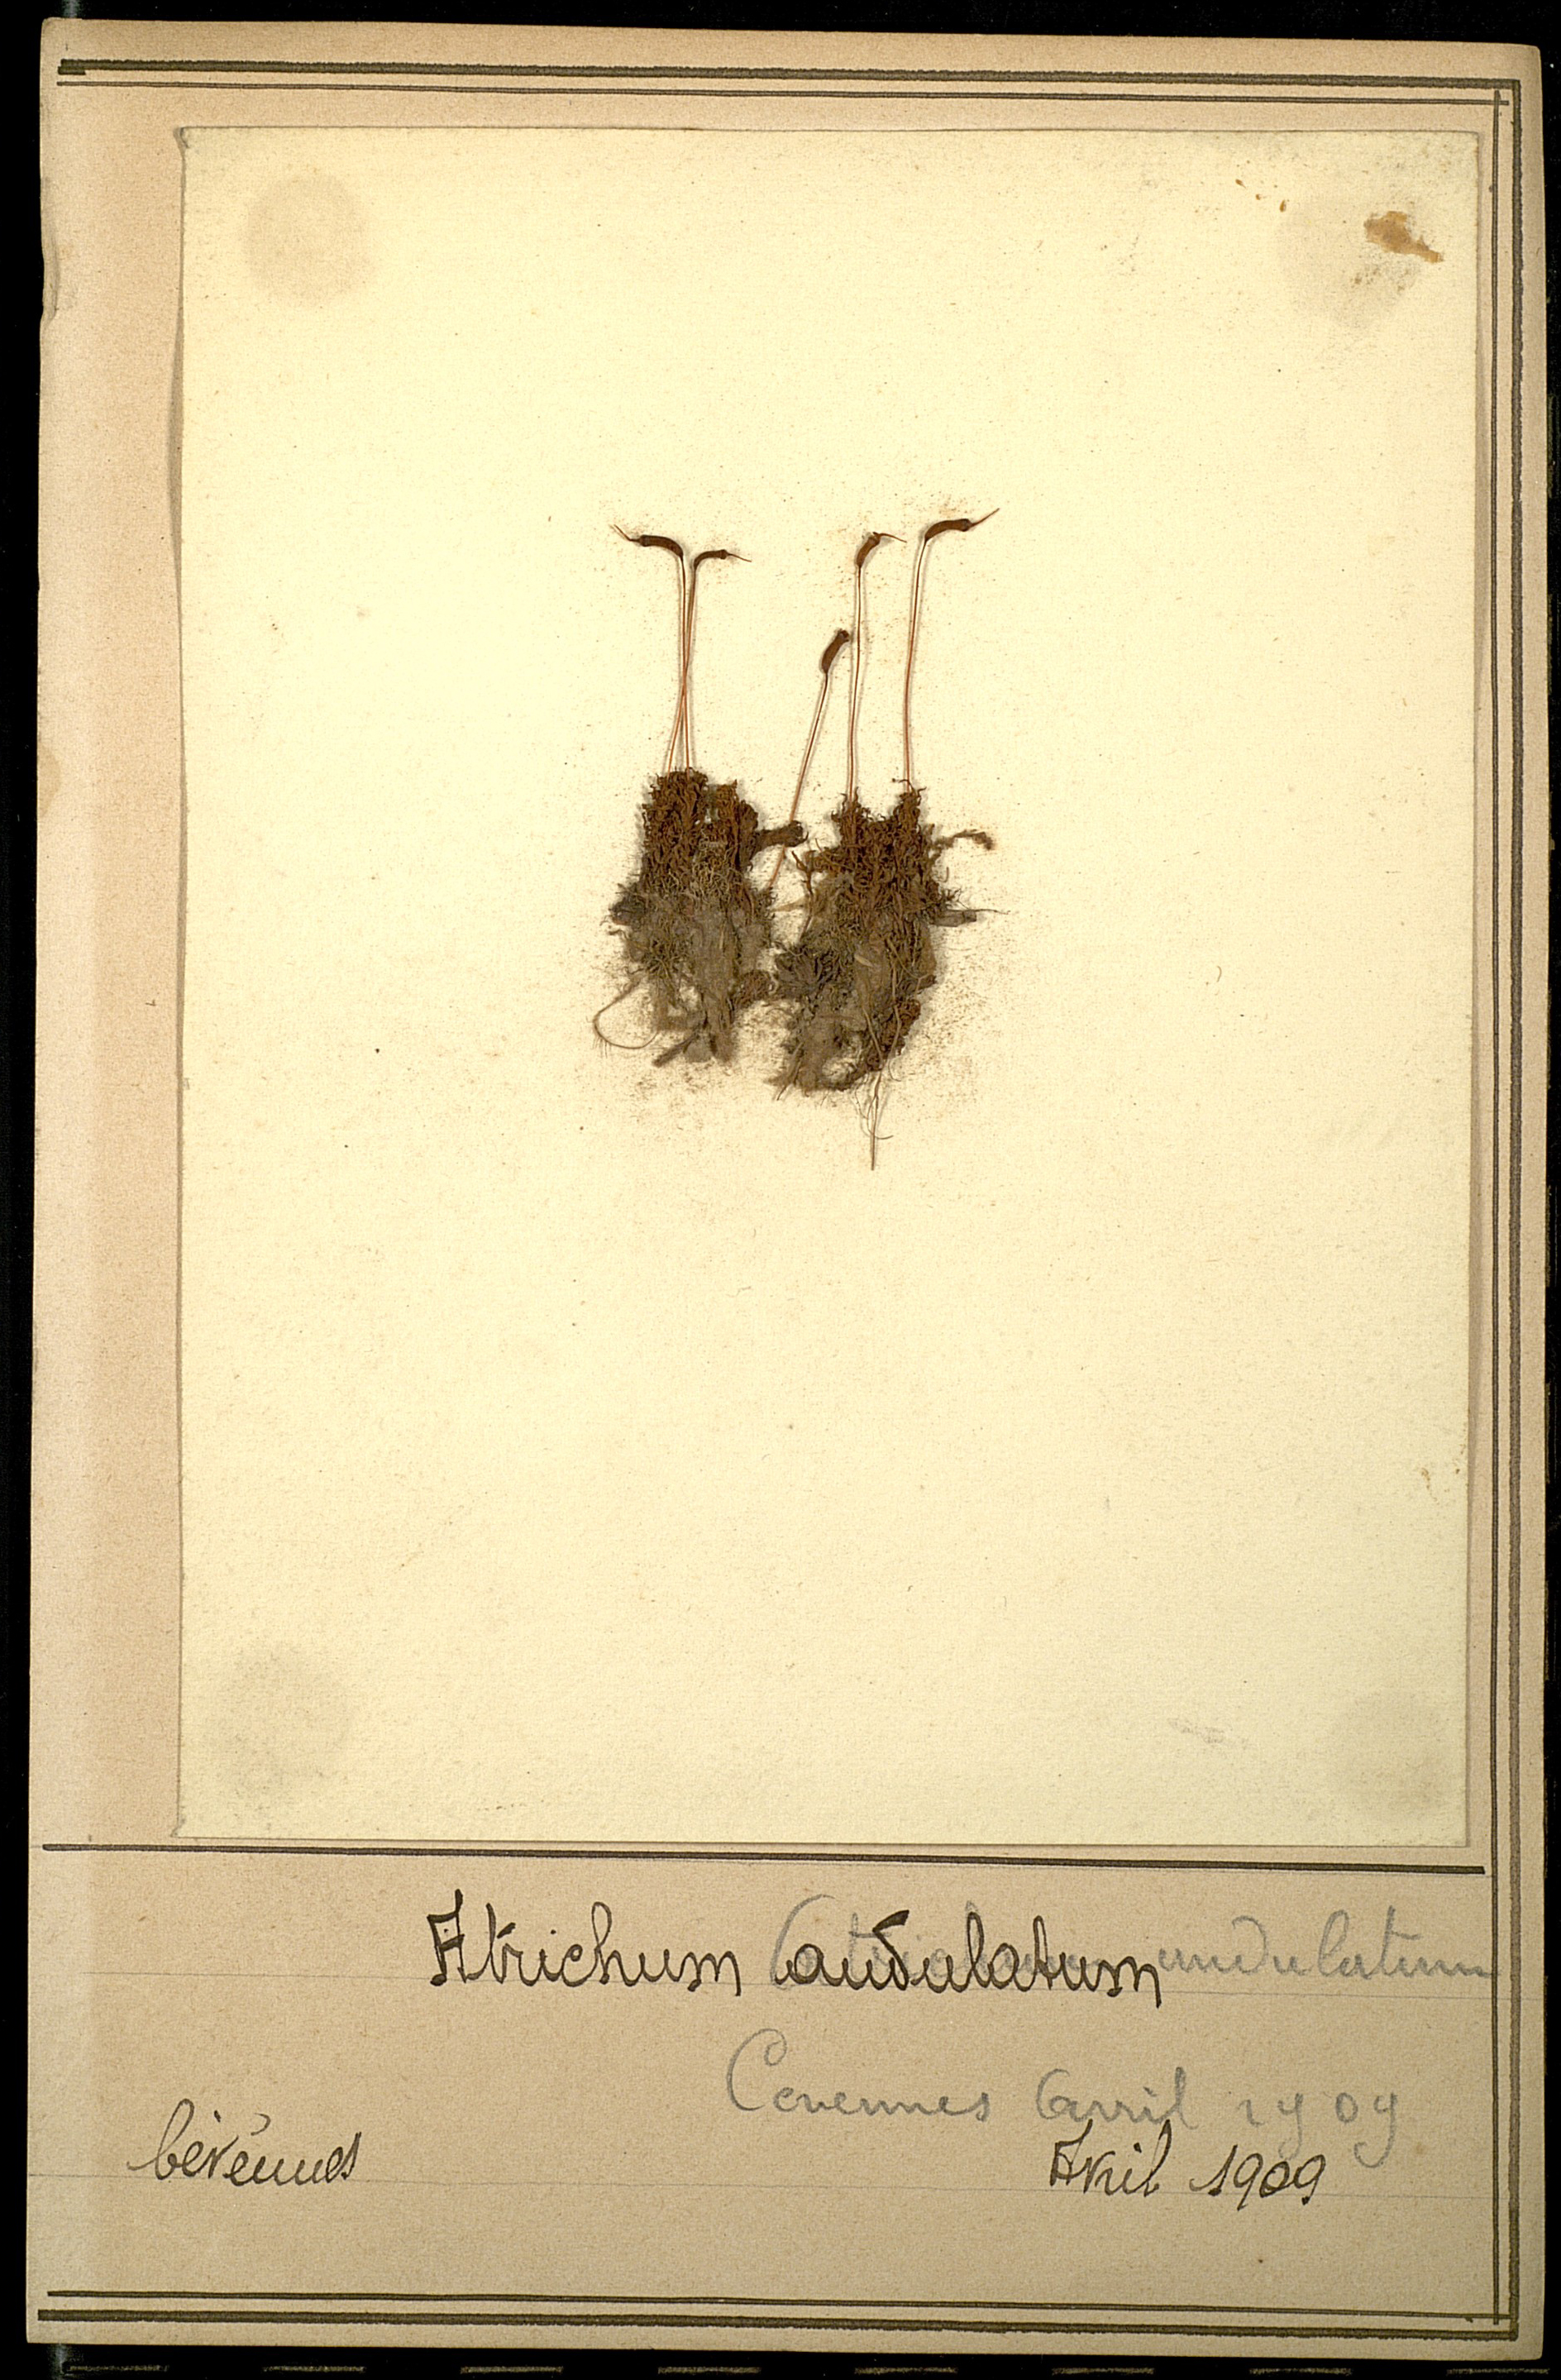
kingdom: Plantae
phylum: Bryophyta
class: Polytrichopsida
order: Polytrichales
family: Polytrichaceae
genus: Atrichum
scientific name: Atrichum undulatum
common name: Common smoothcap
